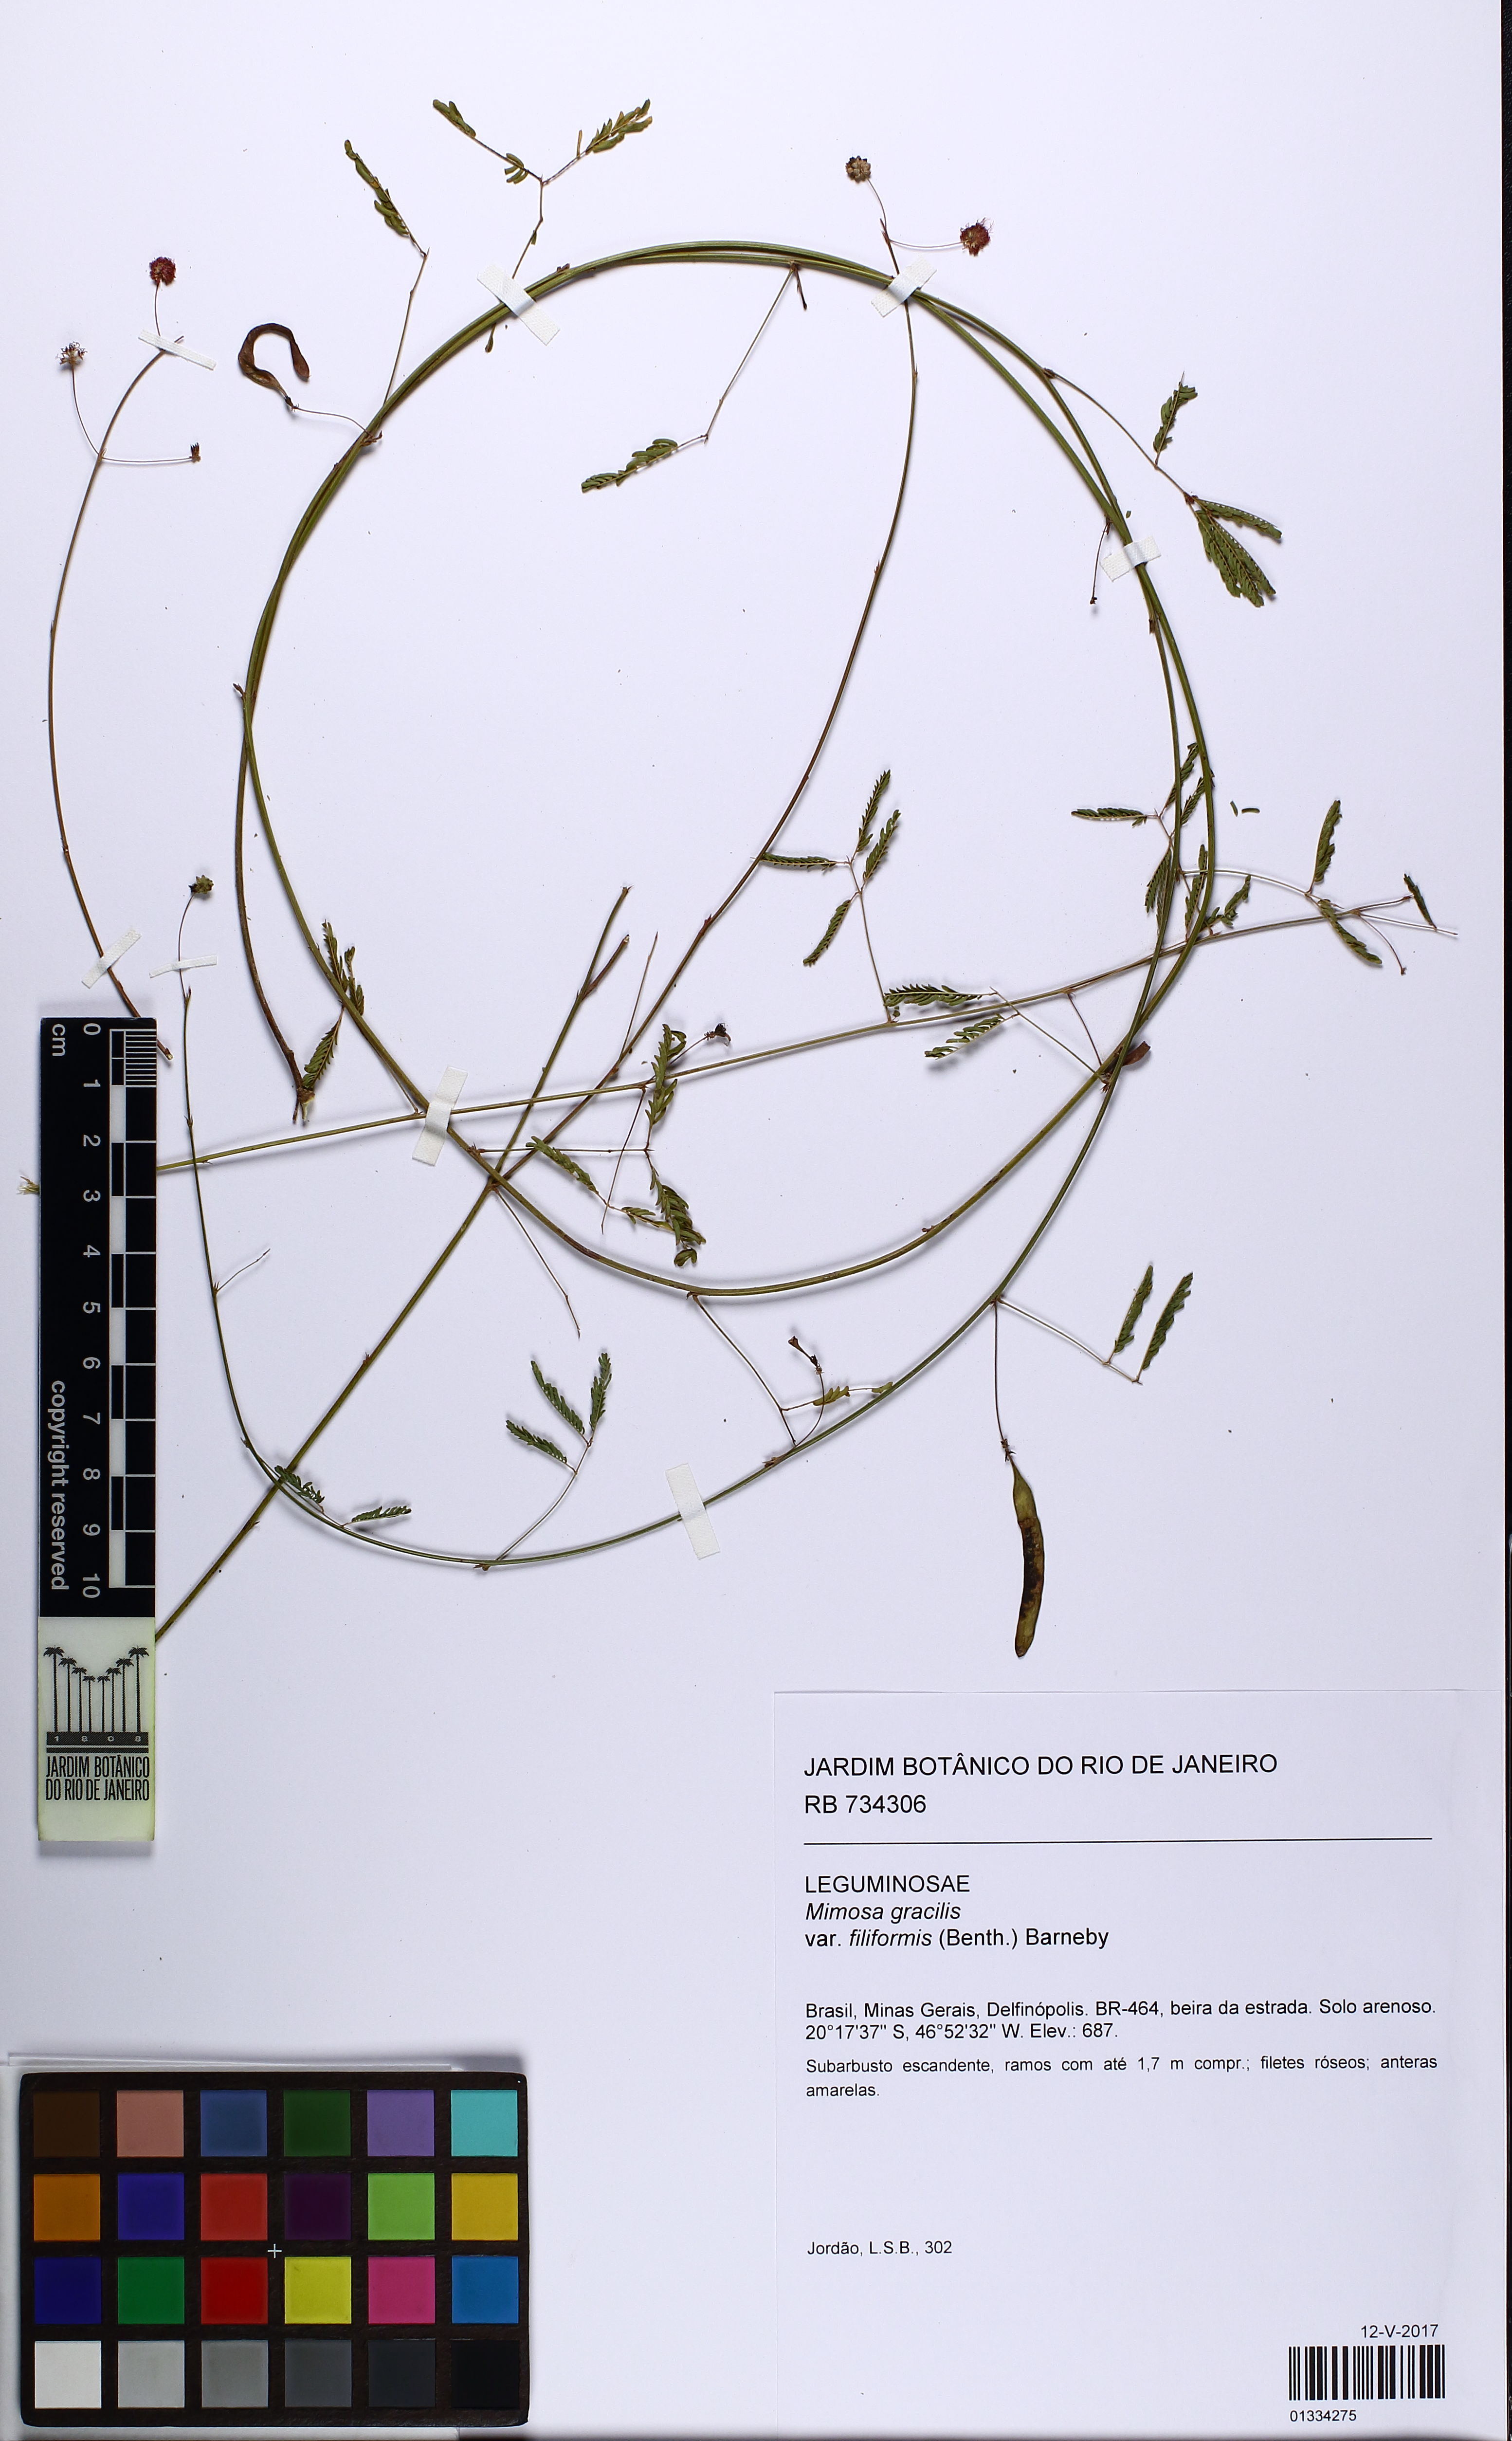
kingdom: Plantae
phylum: Tracheophyta
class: Magnoliopsida
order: Fabales
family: Fabaceae
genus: Mimosa
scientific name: Mimosa gracilis
